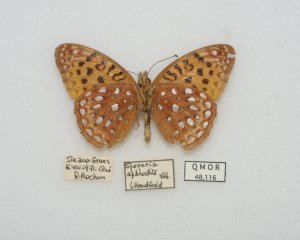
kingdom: Animalia
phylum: Arthropoda
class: Insecta
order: Lepidoptera
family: Nymphalidae
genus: Speyeria
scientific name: Speyeria aphrodite
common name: Aphrodite Fritillary
